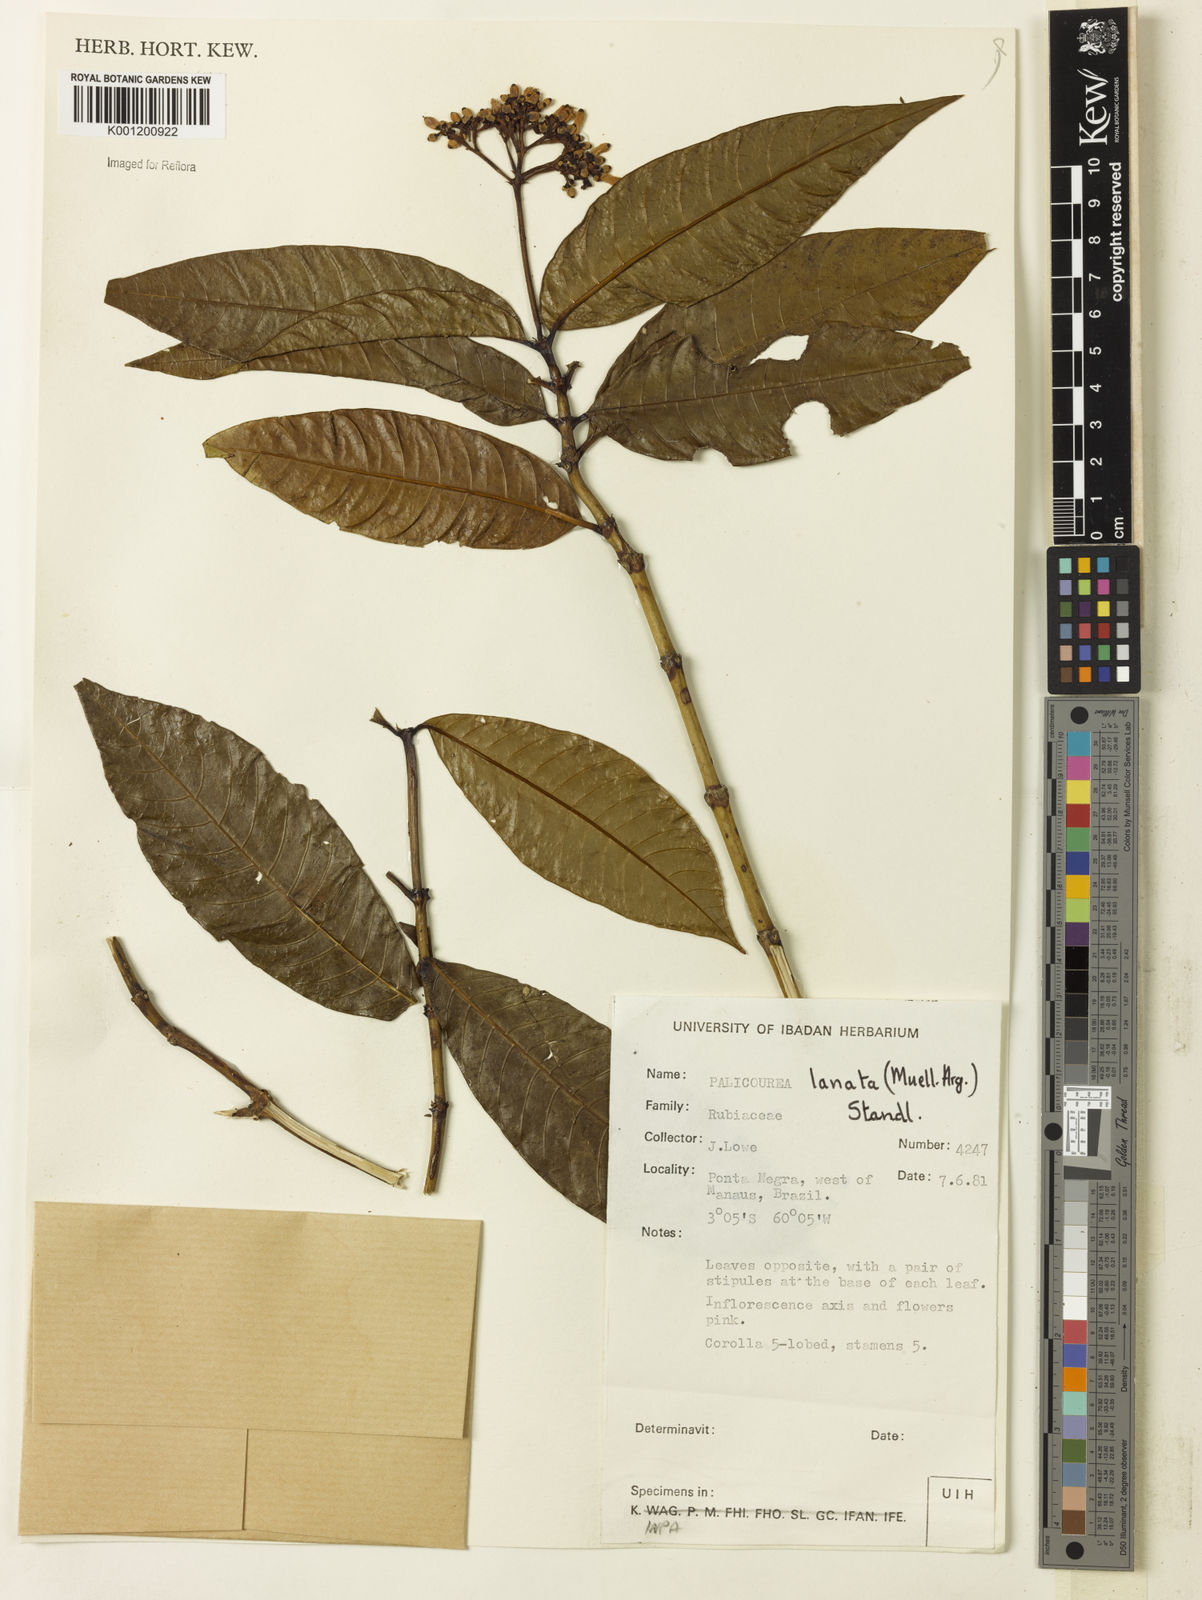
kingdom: Plantae
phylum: Tracheophyta
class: Magnoliopsida
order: Gentianales
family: Rubiaceae
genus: Palicourea
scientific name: Palicourea
